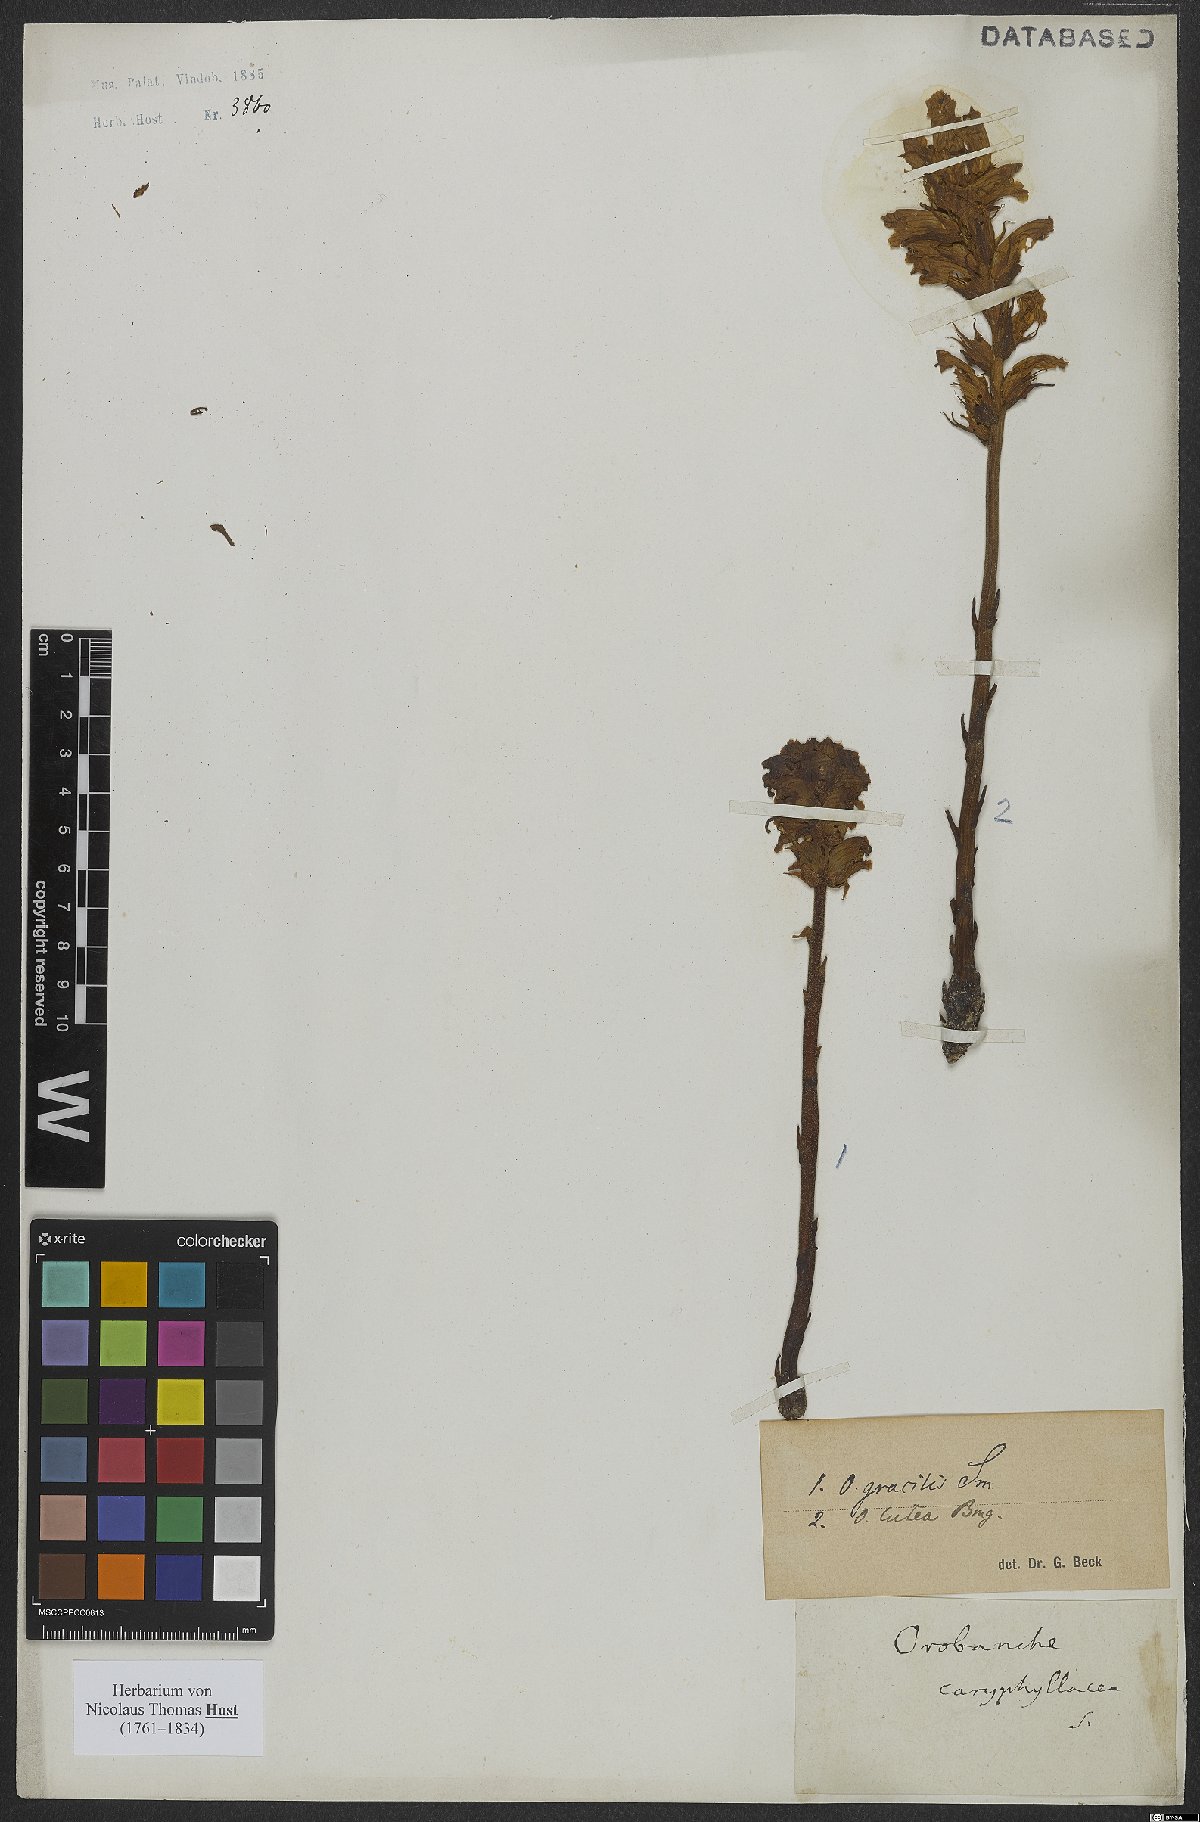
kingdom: Plantae
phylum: Tracheophyta
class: Magnoliopsida
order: Lamiales
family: Orobanchaceae
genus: Orobanche
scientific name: Orobanche gracilis
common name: Slender broomrape
